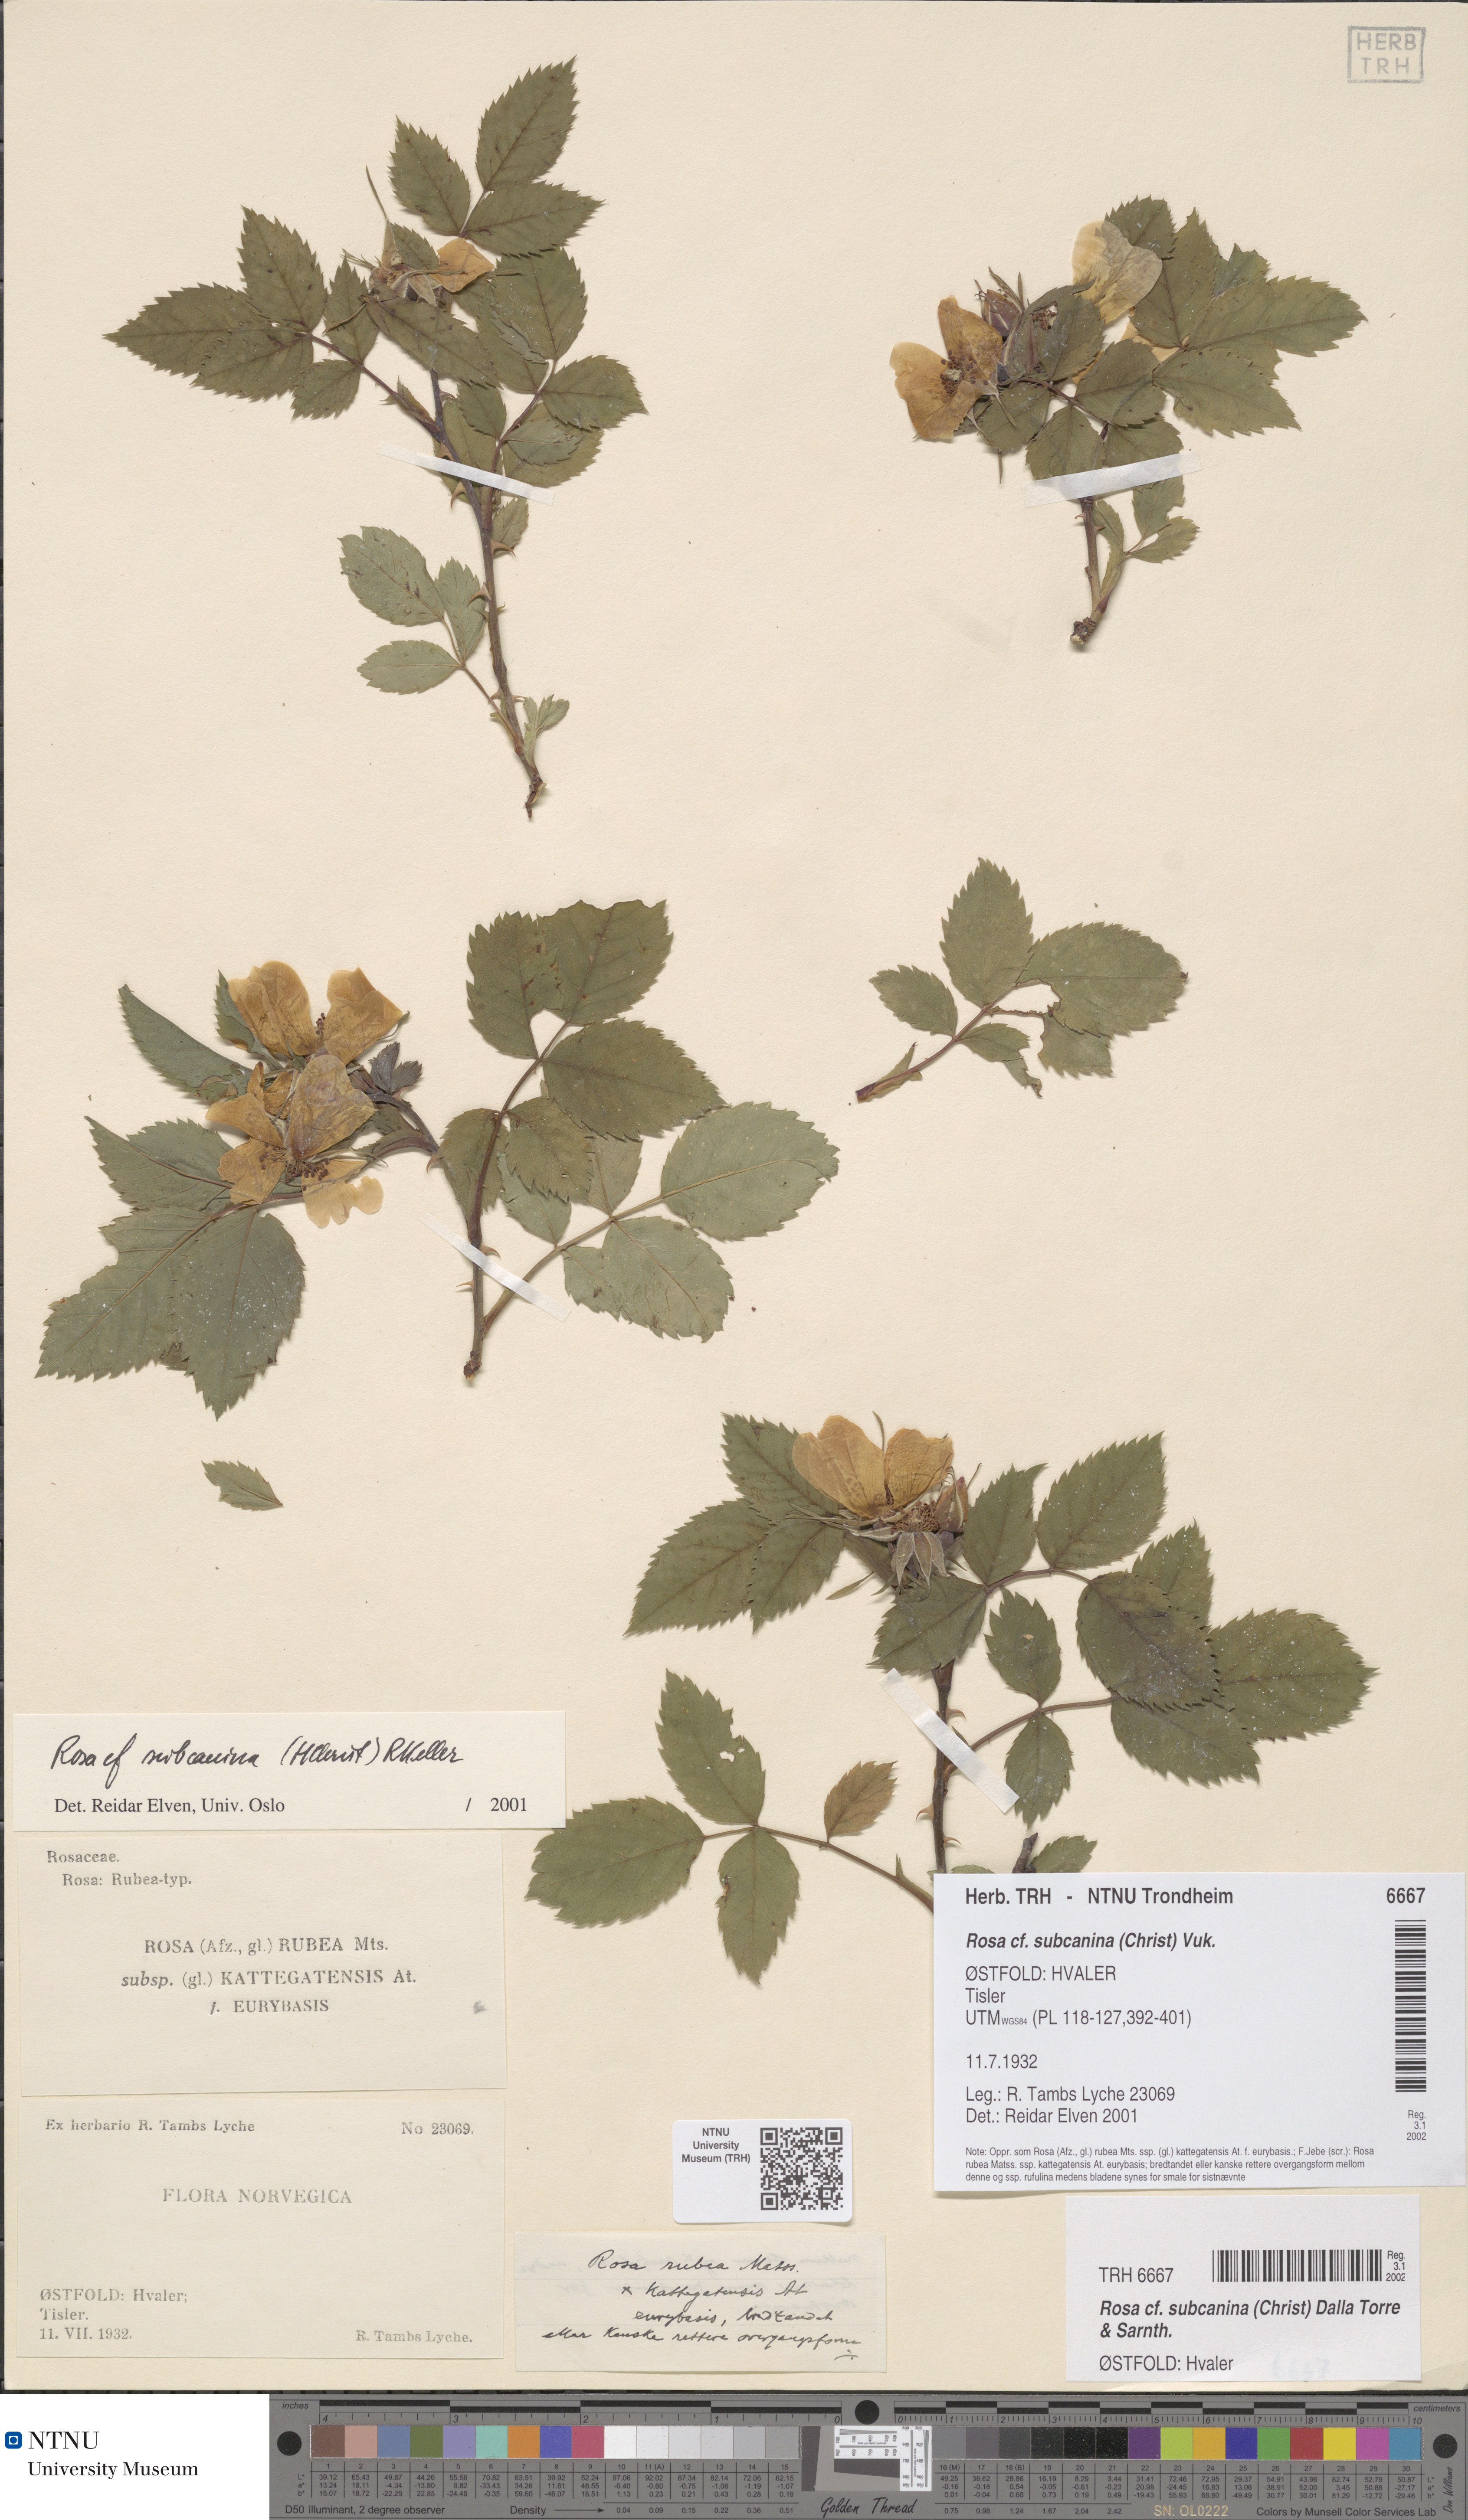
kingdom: Plantae
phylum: Tracheophyta
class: Magnoliopsida
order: Rosales
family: Rosaceae
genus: Rosa
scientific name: Rosa subcanina
